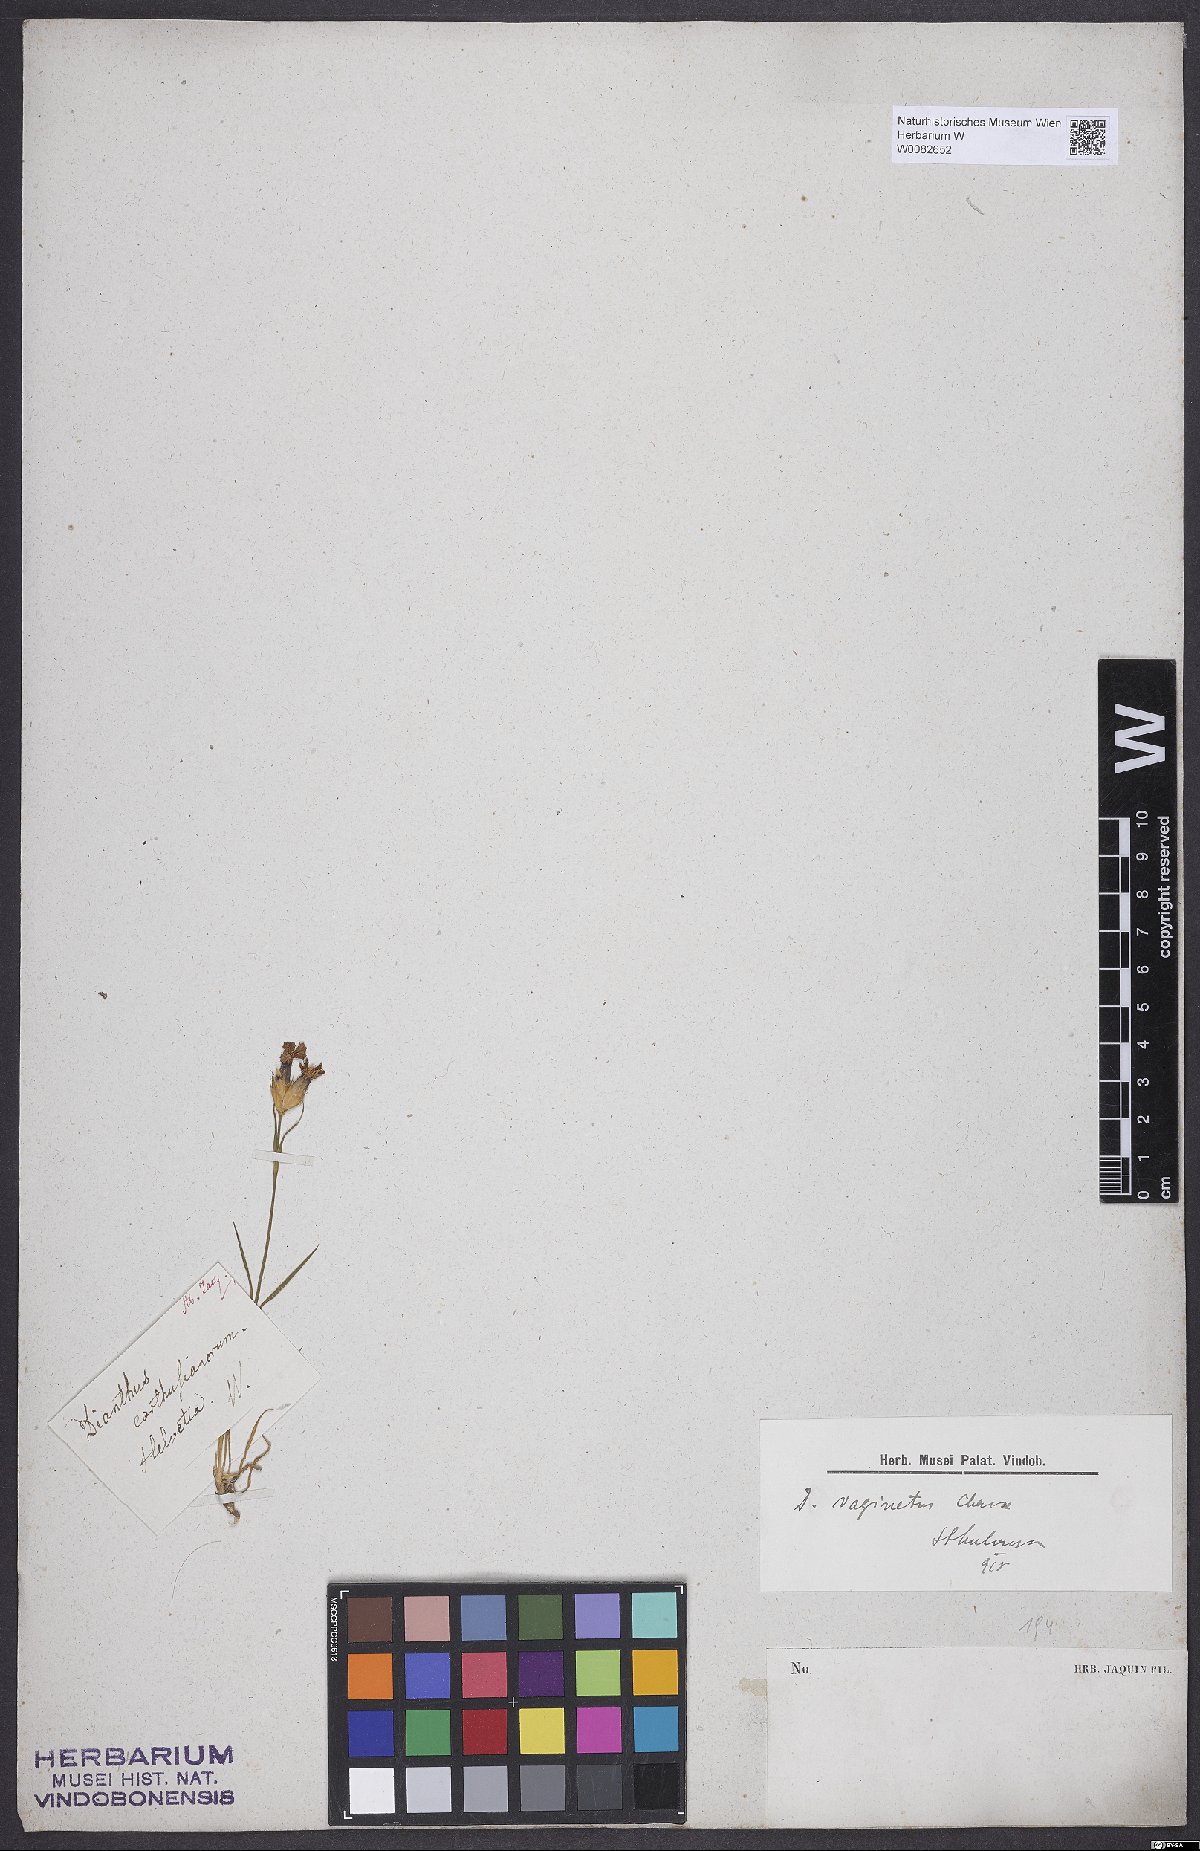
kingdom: Plantae
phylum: Tracheophyta
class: Magnoliopsida
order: Caryophyllales
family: Caryophyllaceae
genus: Dianthus
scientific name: Dianthus carthusianorum
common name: Carthusian pink
